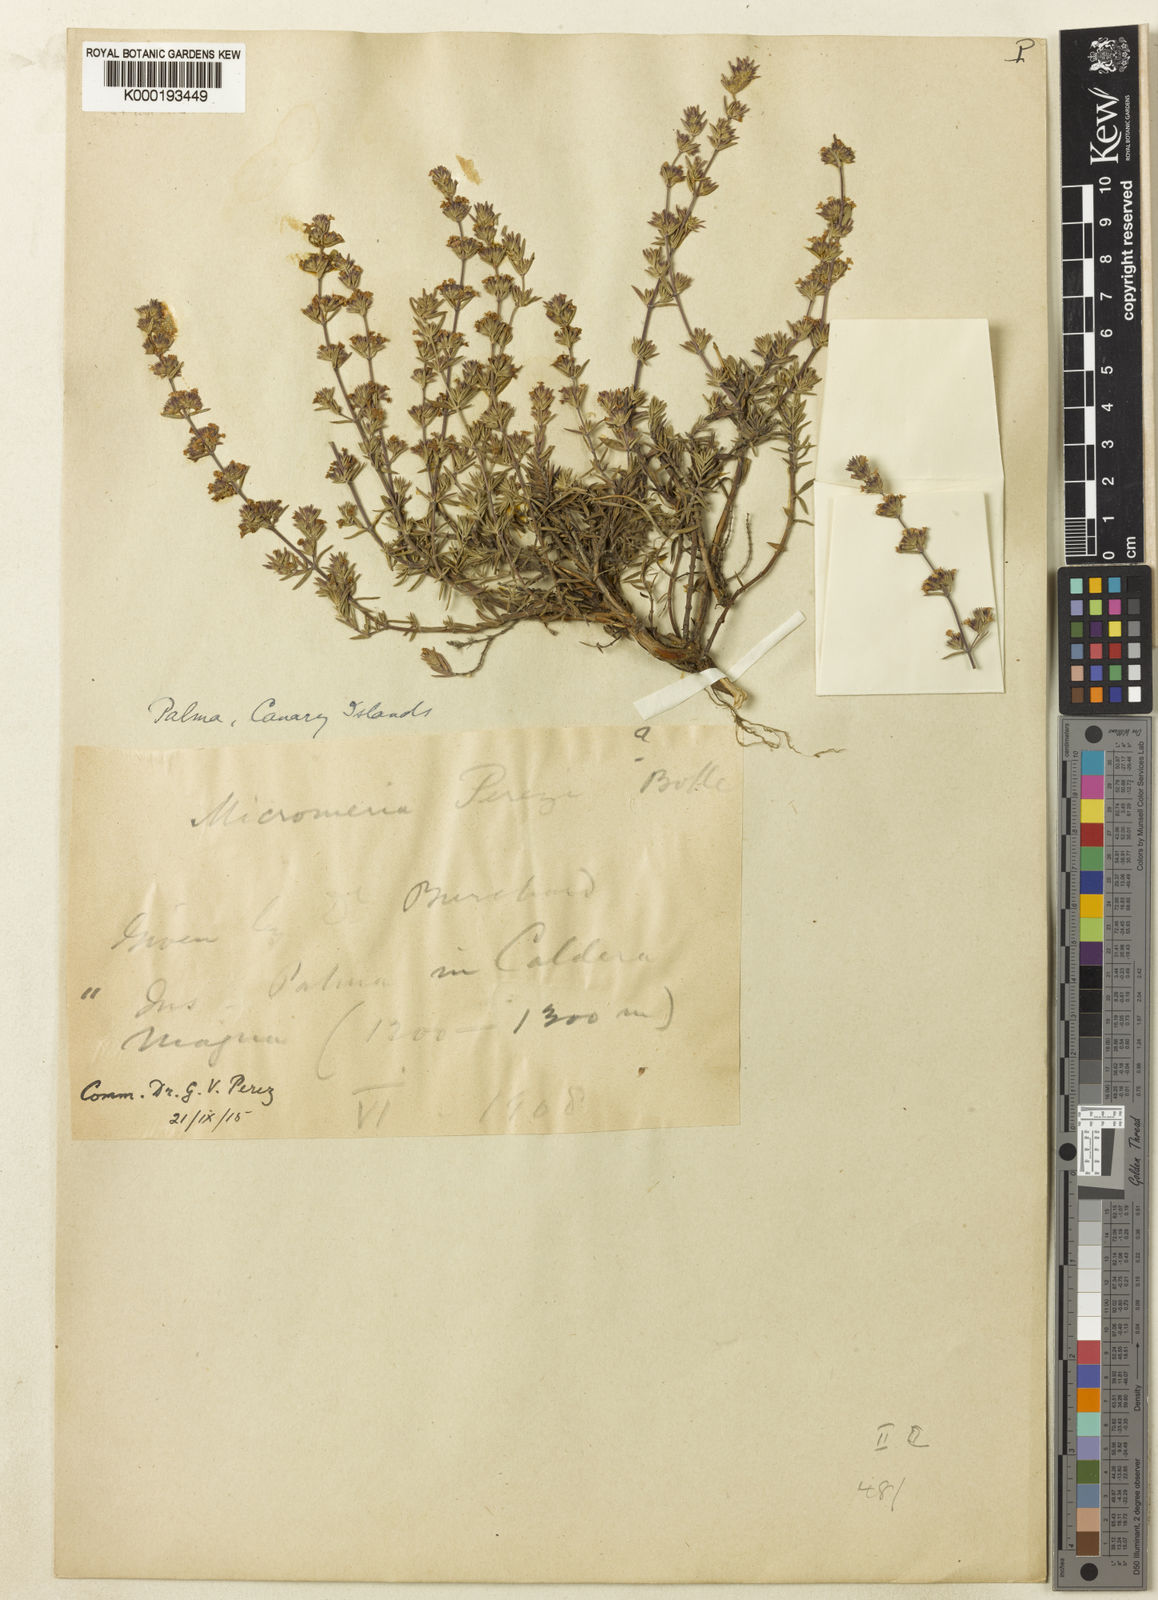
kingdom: Plantae
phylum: Tracheophyta
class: Magnoliopsida
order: Lamiales
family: Lamiaceae
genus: Micromeria
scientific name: Micromeria herpyllomorpha
